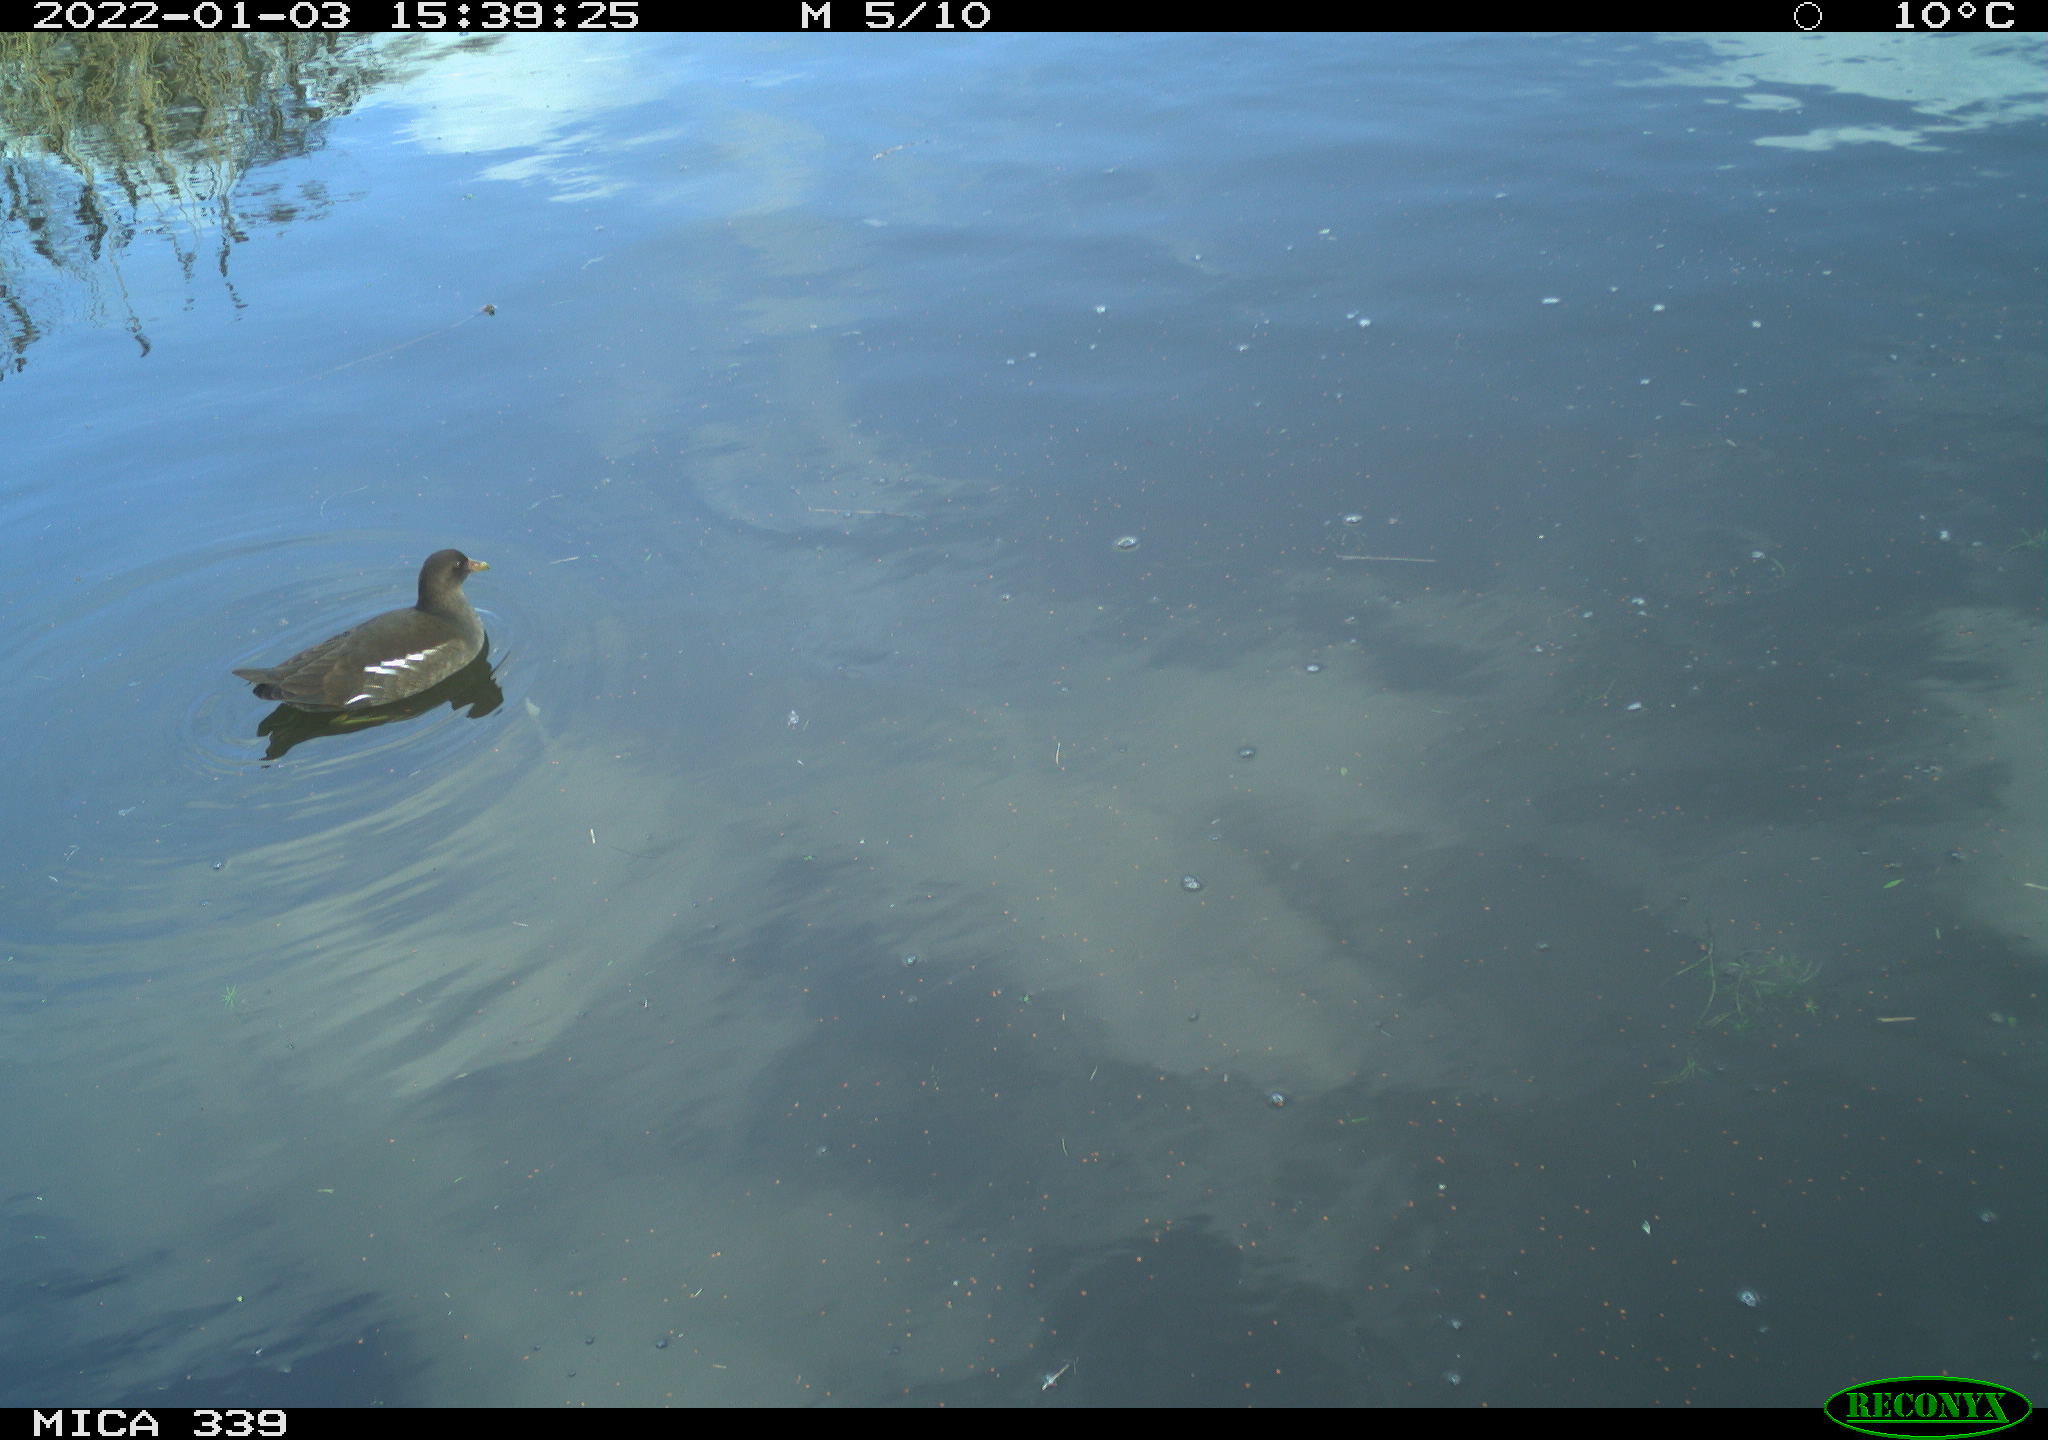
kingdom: Animalia
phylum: Chordata
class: Aves
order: Gruiformes
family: Rallidae
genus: Gallinula
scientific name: Gallinula chloropus
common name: Common moorhen
